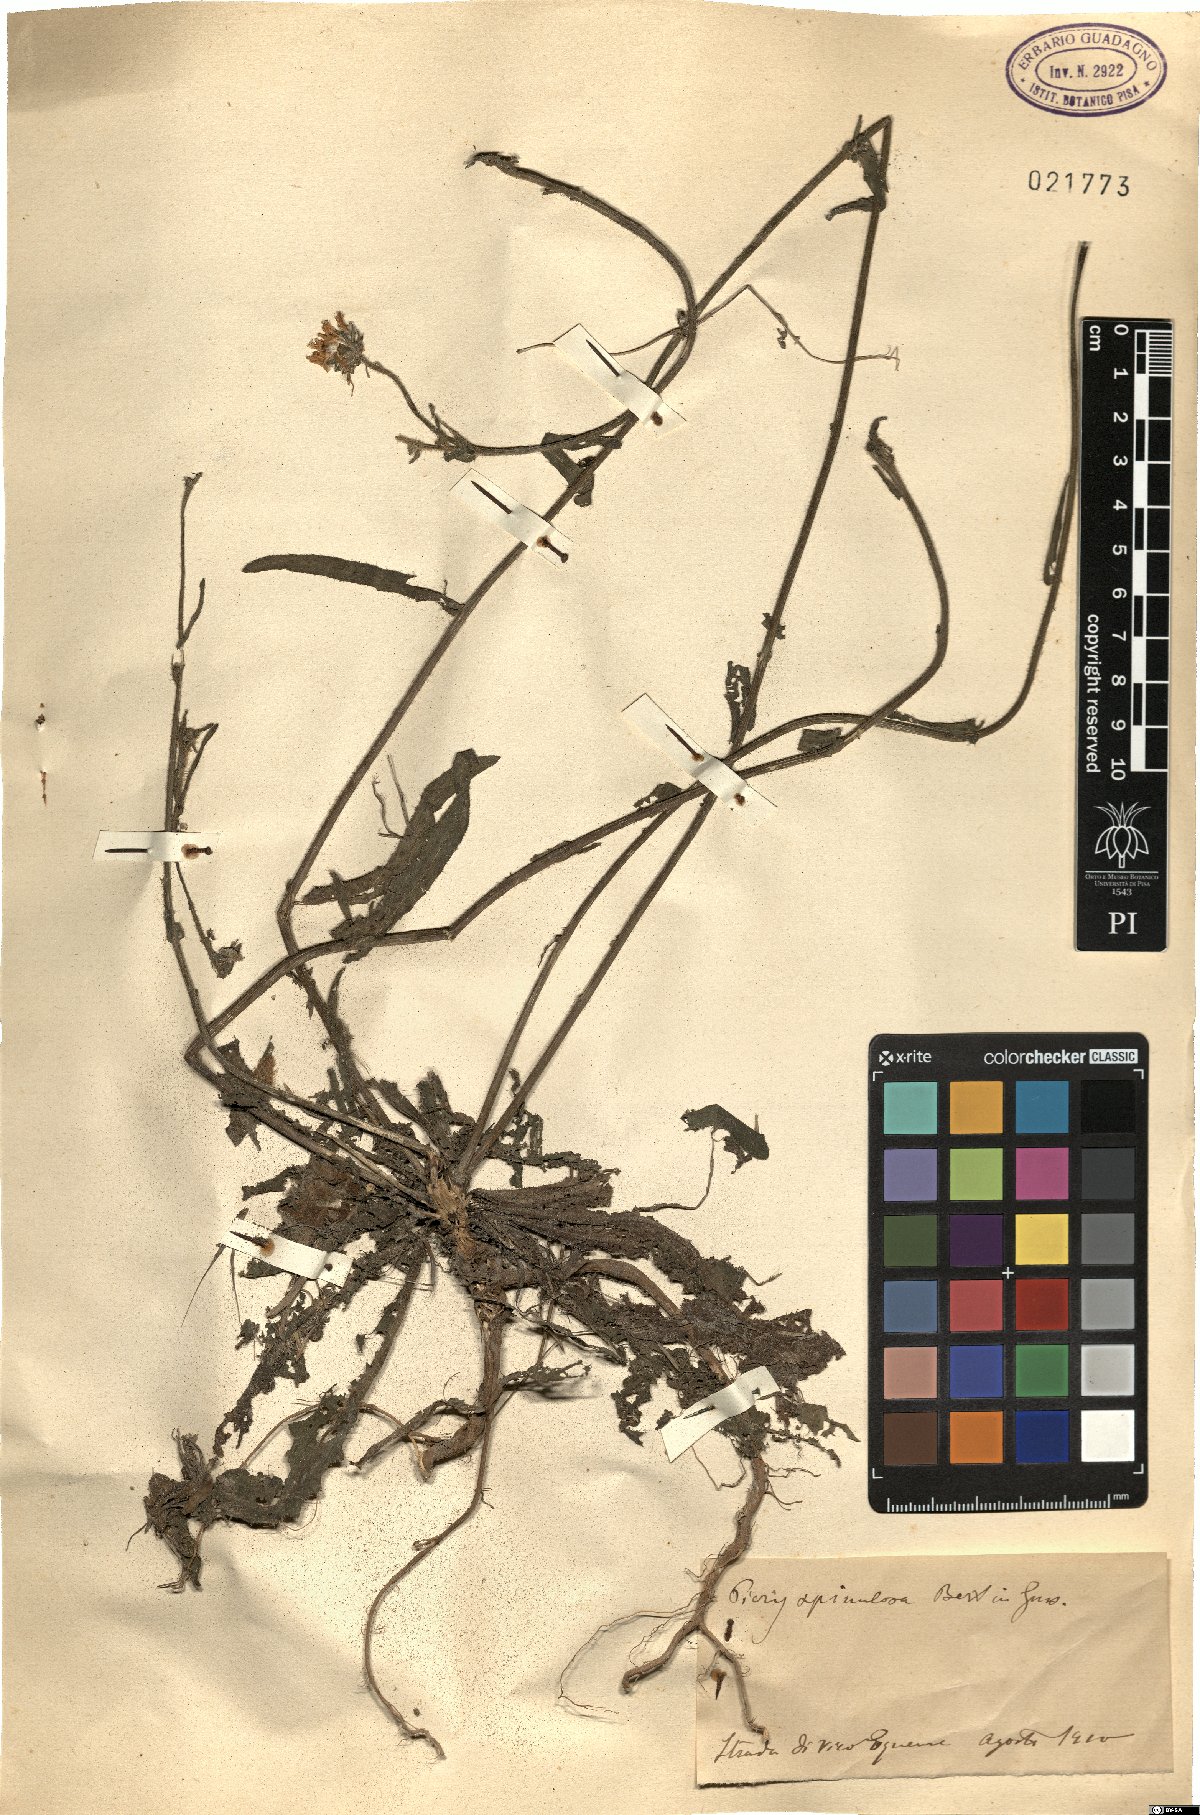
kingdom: Plantae
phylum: Tracheophyta
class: Magnoliopsida
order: Asterales
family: Asteraceae
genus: Picris
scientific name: Picris hieracioides
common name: Hawkweed oxtongue
